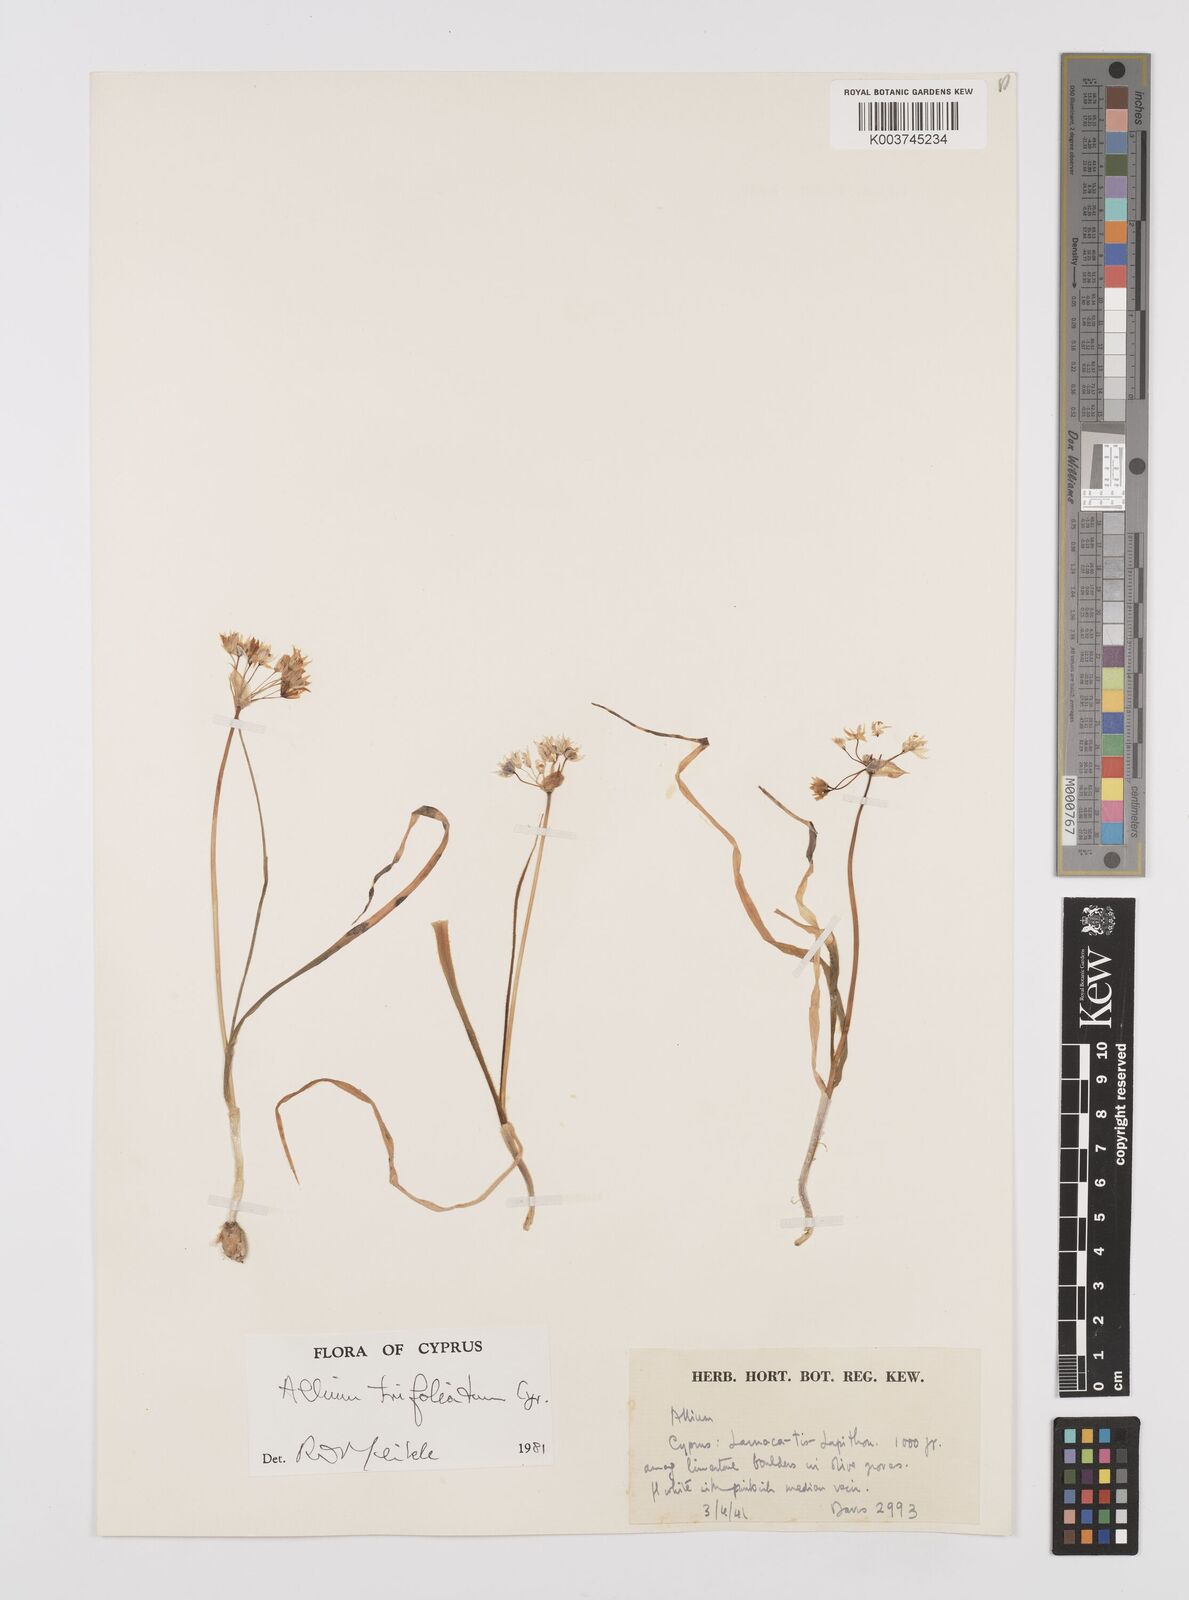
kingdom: Plantae
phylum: Tracheophyta
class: Liliopsida
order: Asparagales
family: Amaryllidaceae
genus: Allium
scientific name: Allium subhirsutum
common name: Hairy garlic
